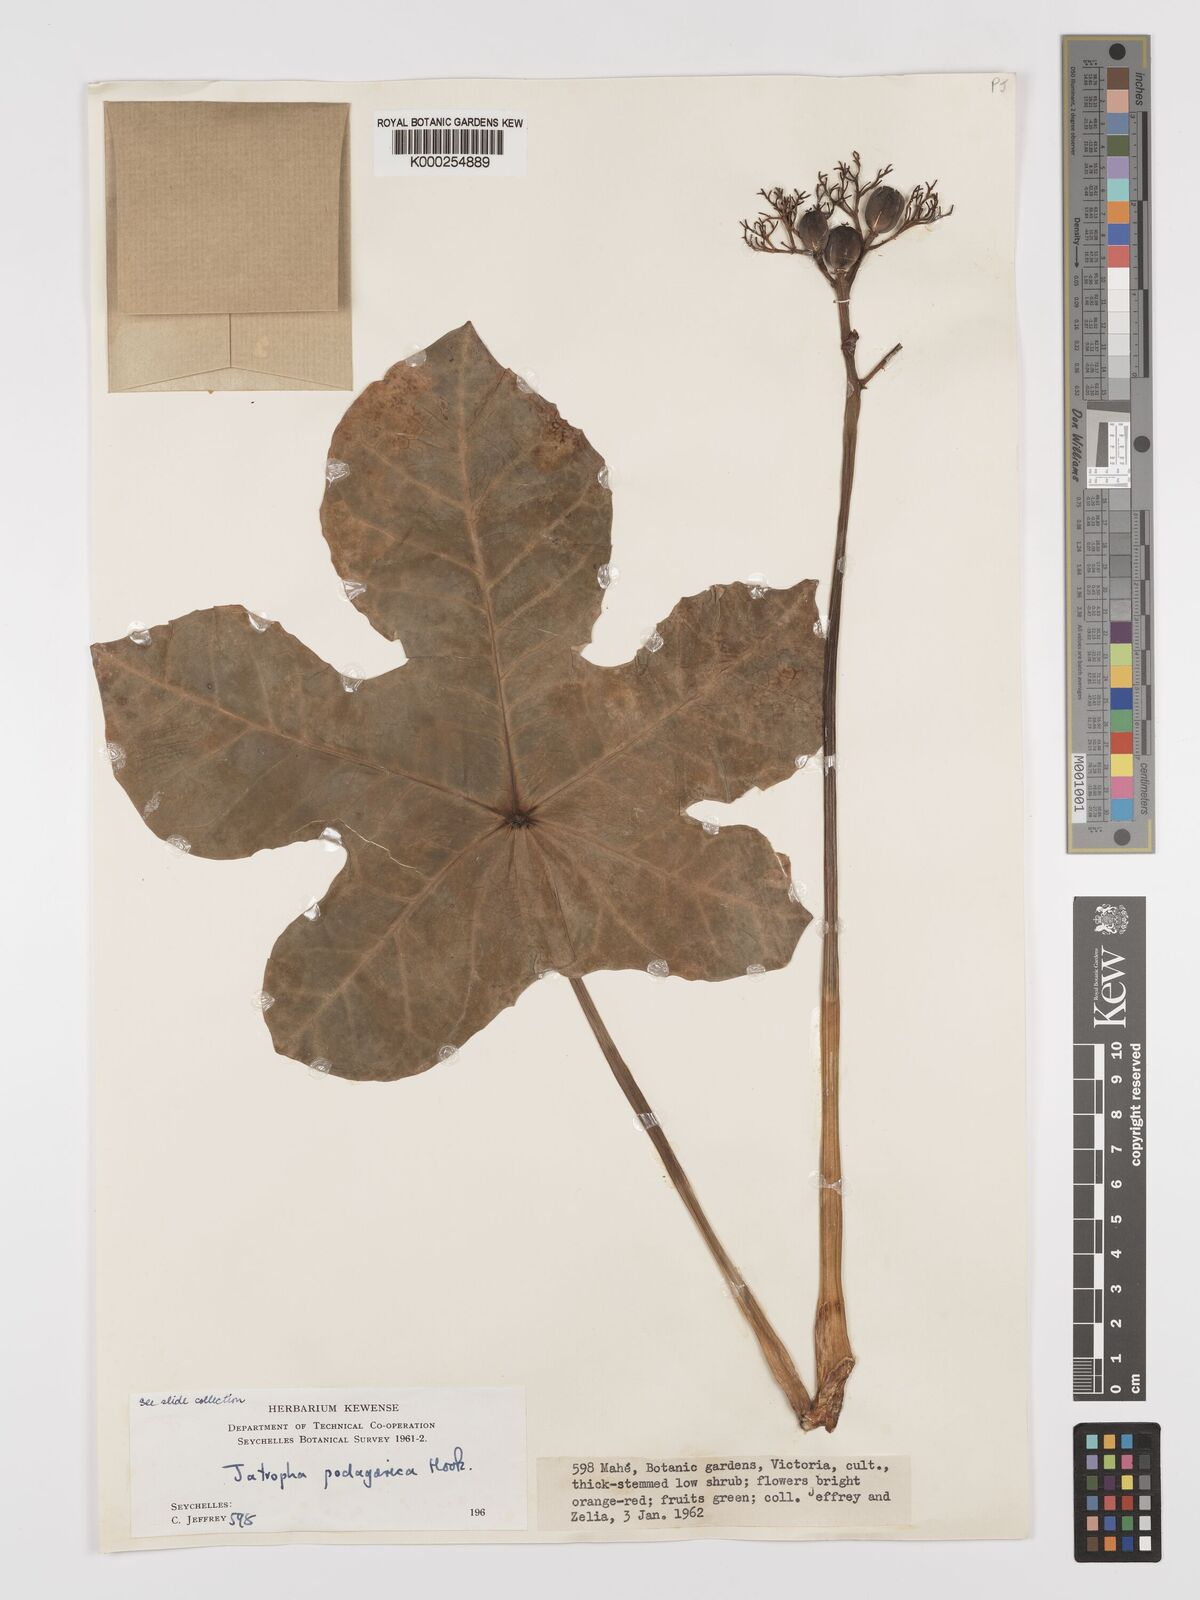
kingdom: Plantae
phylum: Tracheophyta
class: Magnoliopsida
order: Malpighiales
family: Euphorbiaceae
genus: Jatropha
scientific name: Jatropha
